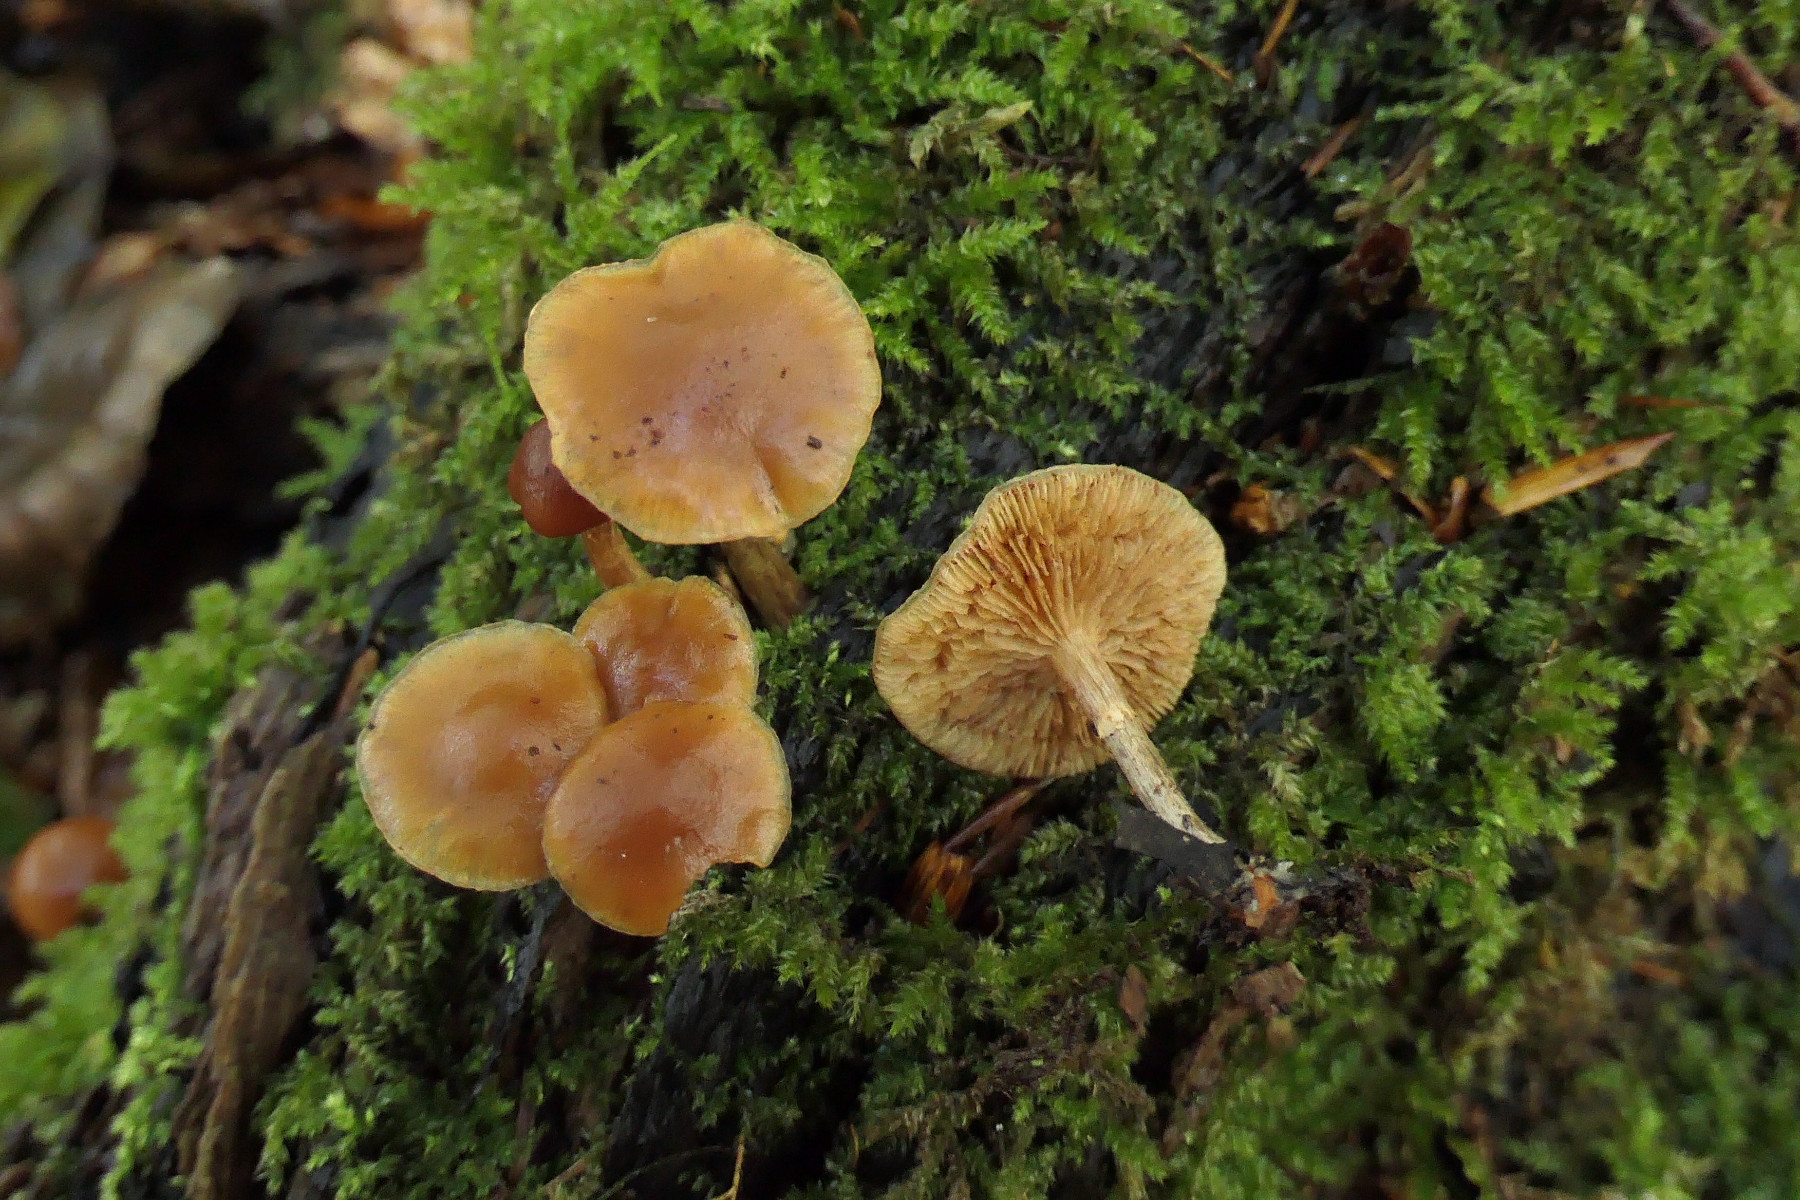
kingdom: Fungi
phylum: Basidiomycota
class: Agaricomycetes
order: Agaricales
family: Hymenogastraceae
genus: Galerina
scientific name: Galerina marginata
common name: randbæltet hjelmhat
